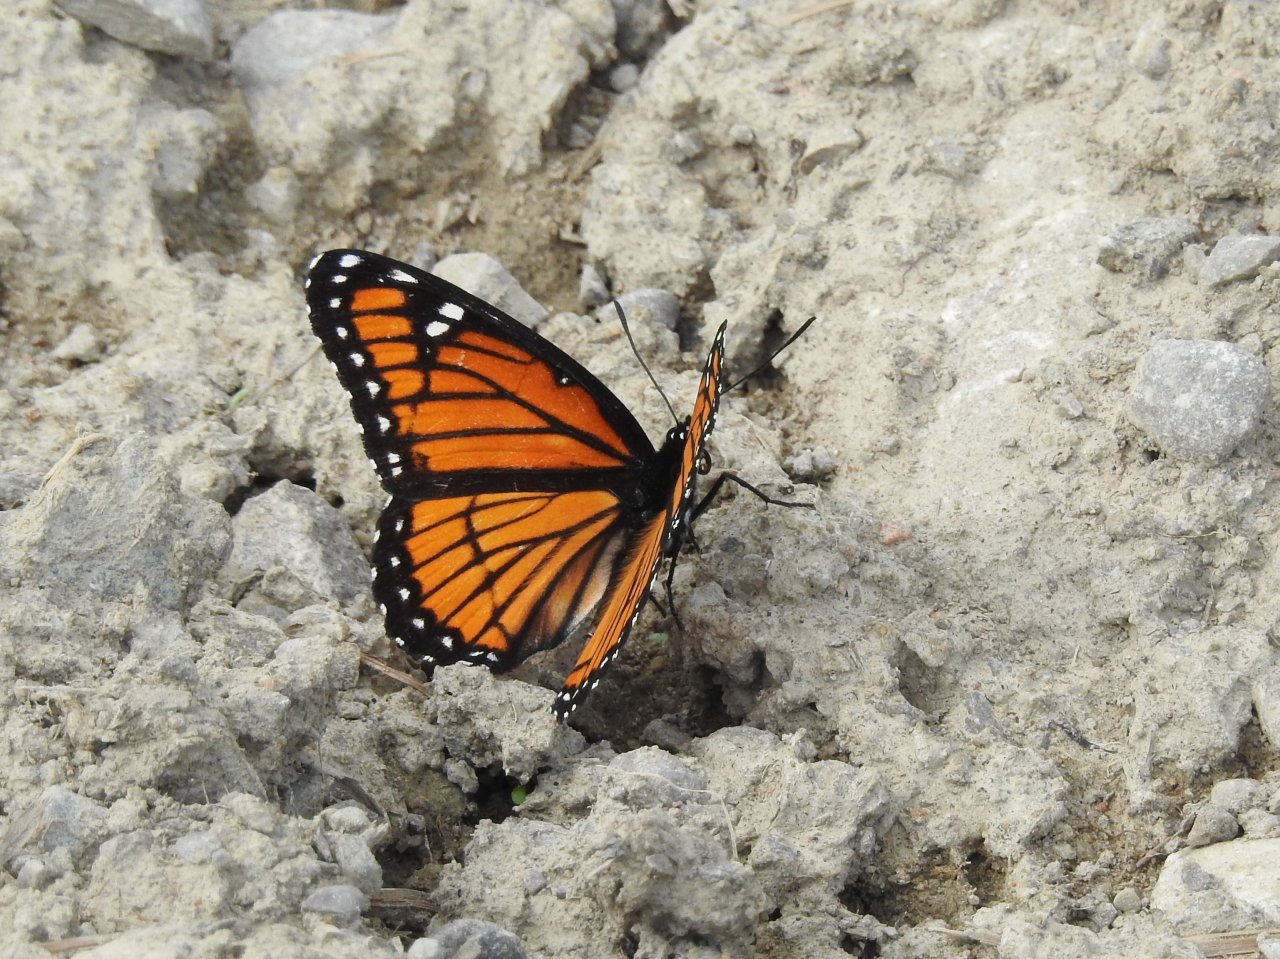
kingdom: Animalia
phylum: Arthropoda
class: Insecta
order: Lepidoptera
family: Nymphalidae
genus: Limenitis
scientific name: Limenitis archippus
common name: Viceroy
